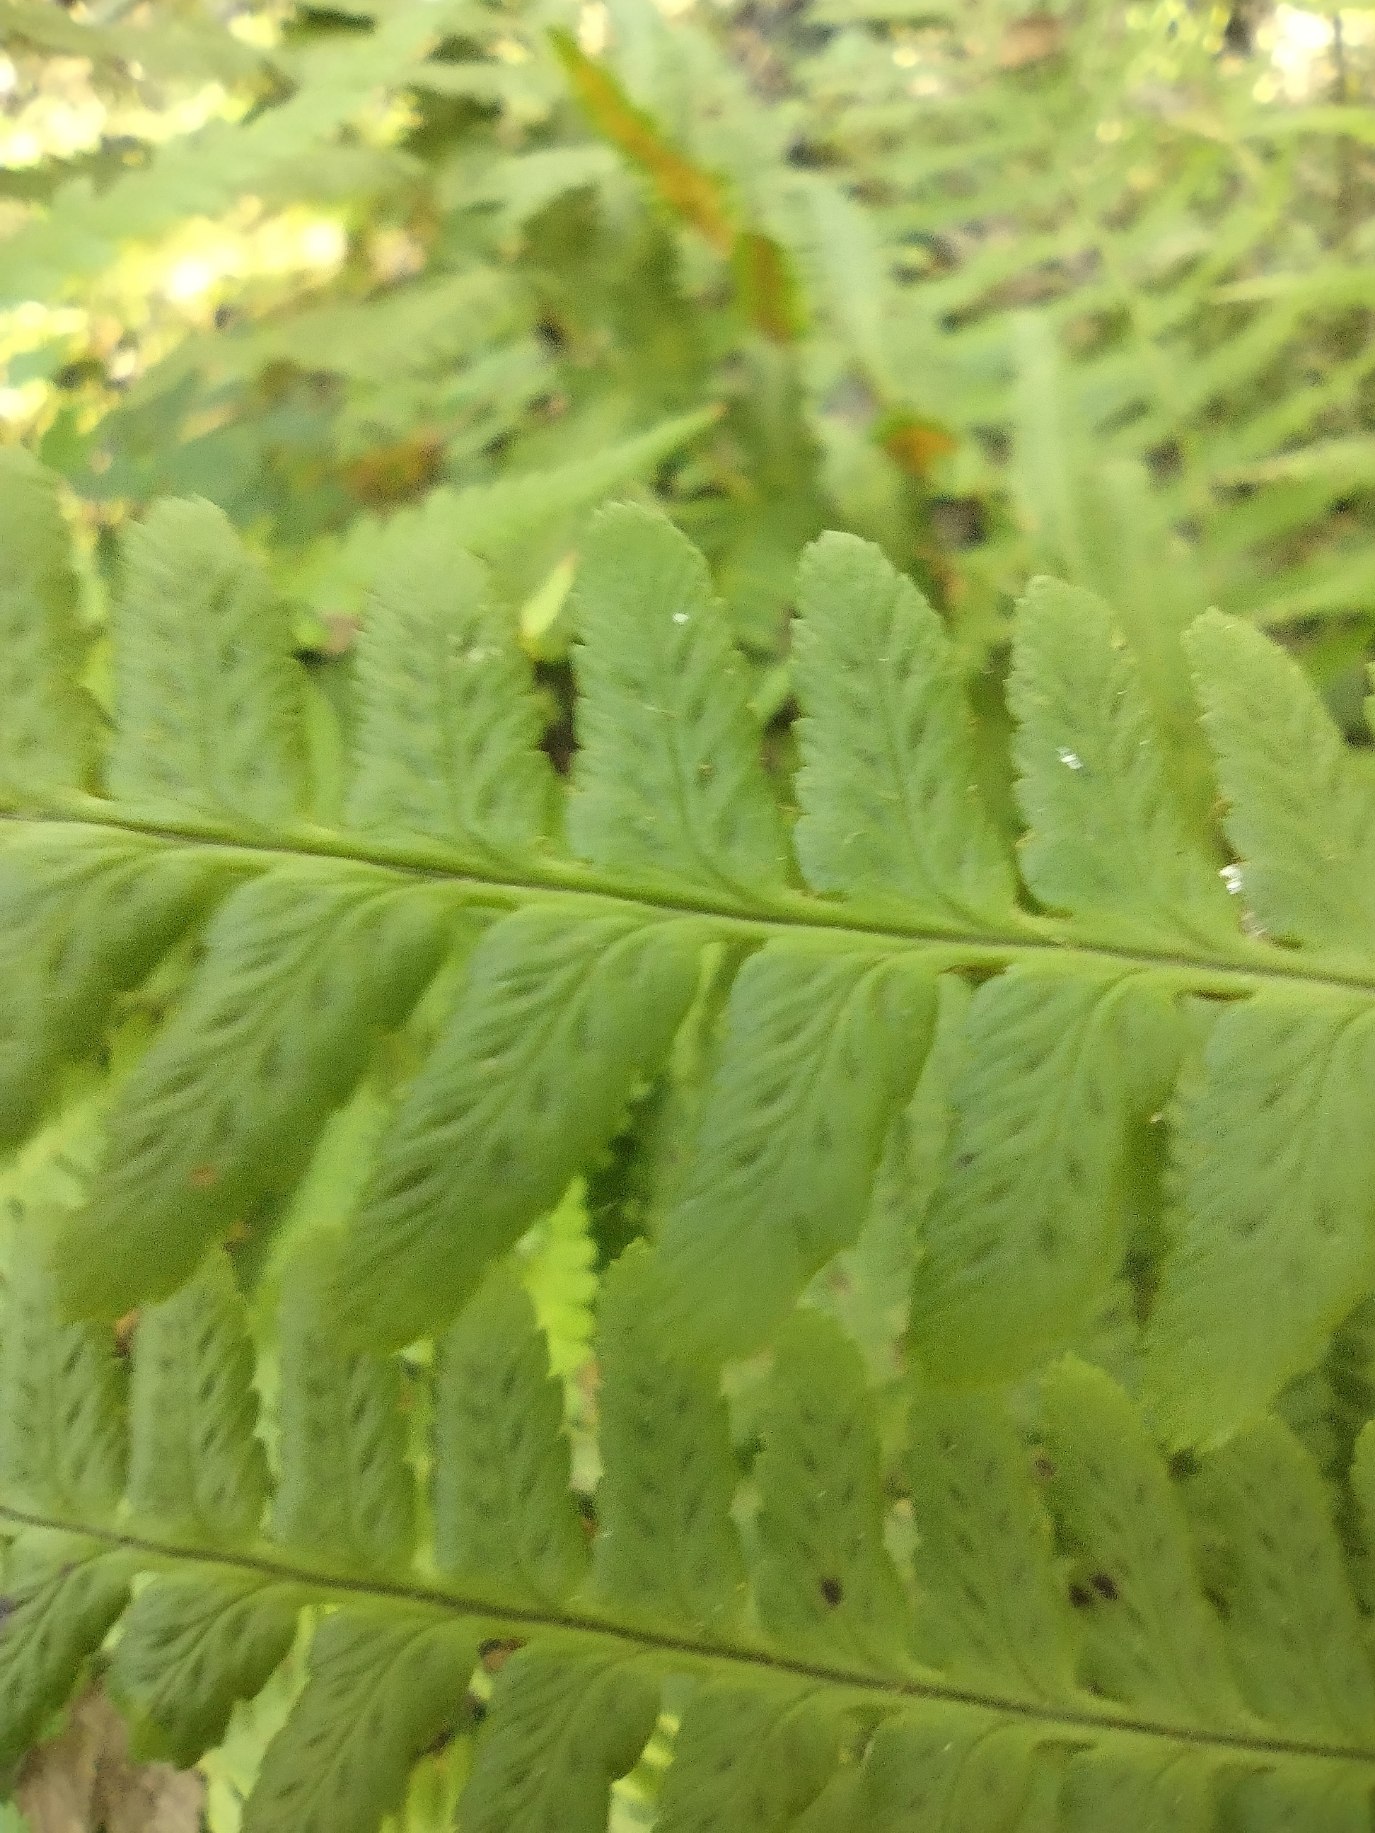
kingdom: Plantae
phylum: Tracheophyta
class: Polypodiopsida
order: Polypodiales
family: Dryopteridaceae
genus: Dryopteris
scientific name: Dryopteris filix-mas
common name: Almindelig mangeløv
